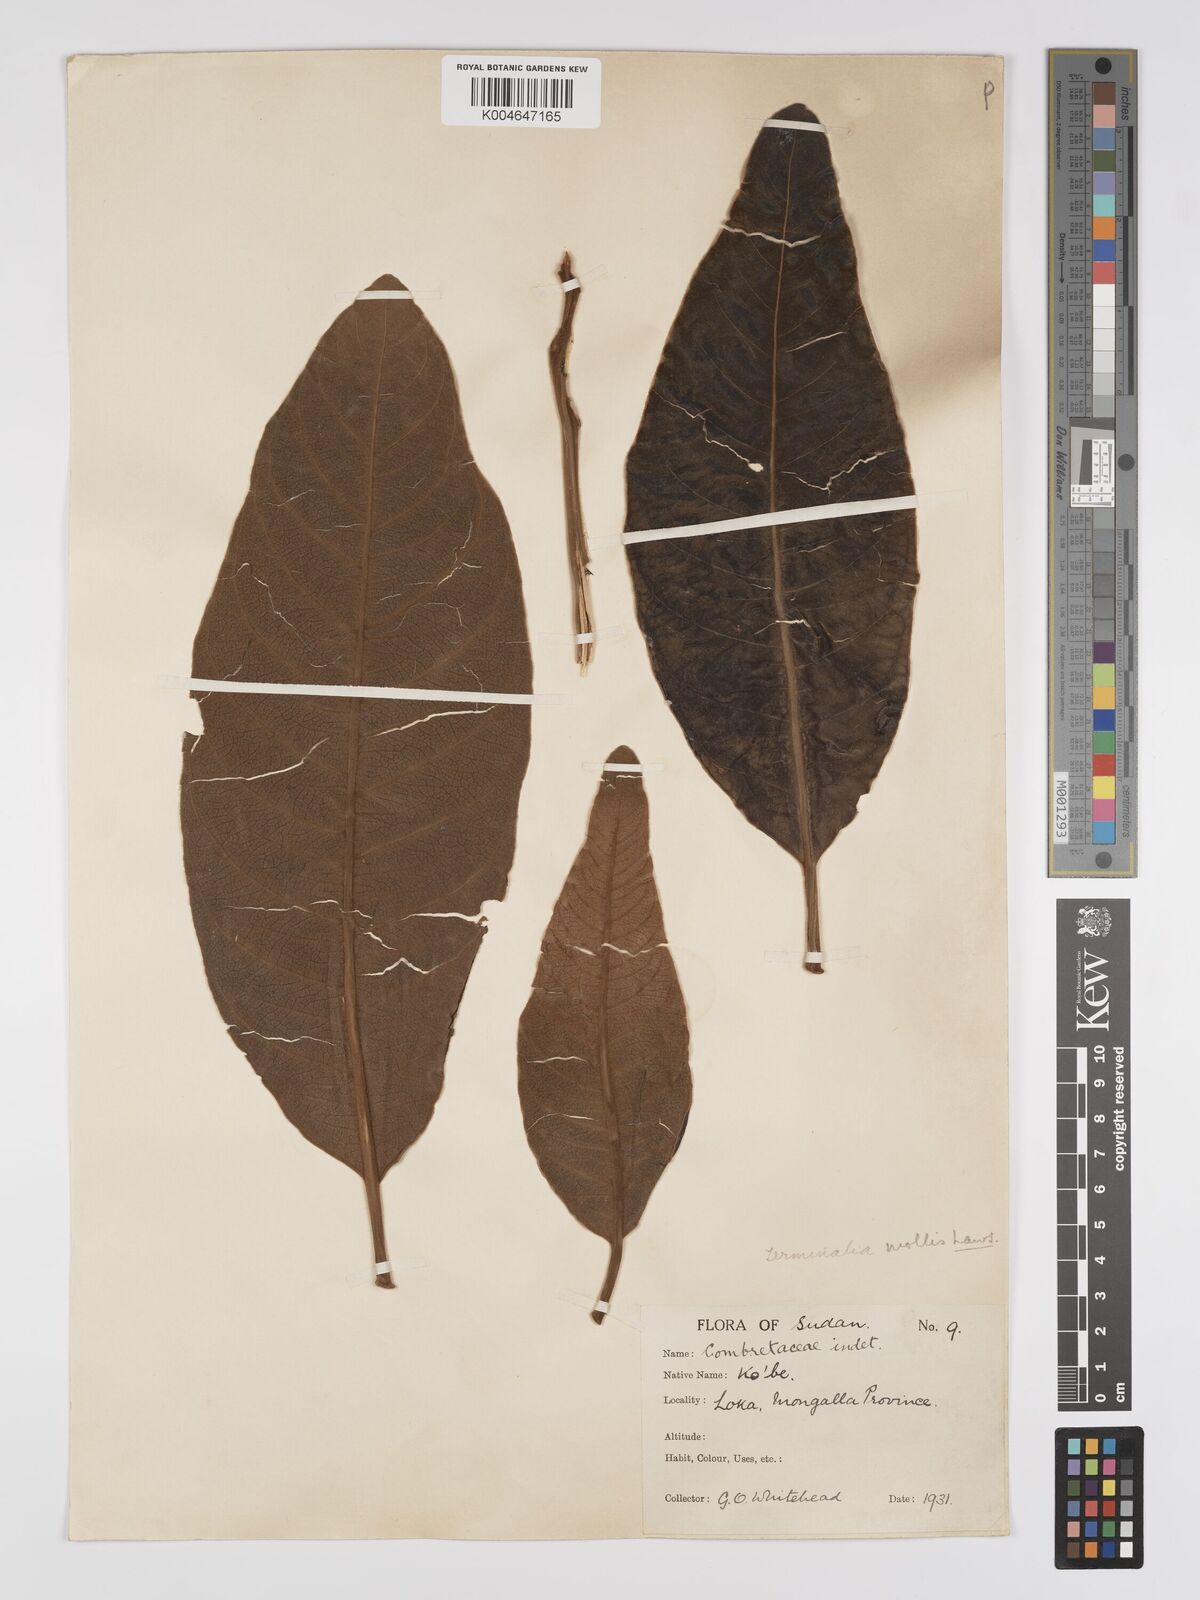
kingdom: Plantae
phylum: Tracheophyta
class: Magnoliopsida
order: Myrtales
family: Combretaceae
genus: Terminalia
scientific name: Terminalia mollis
